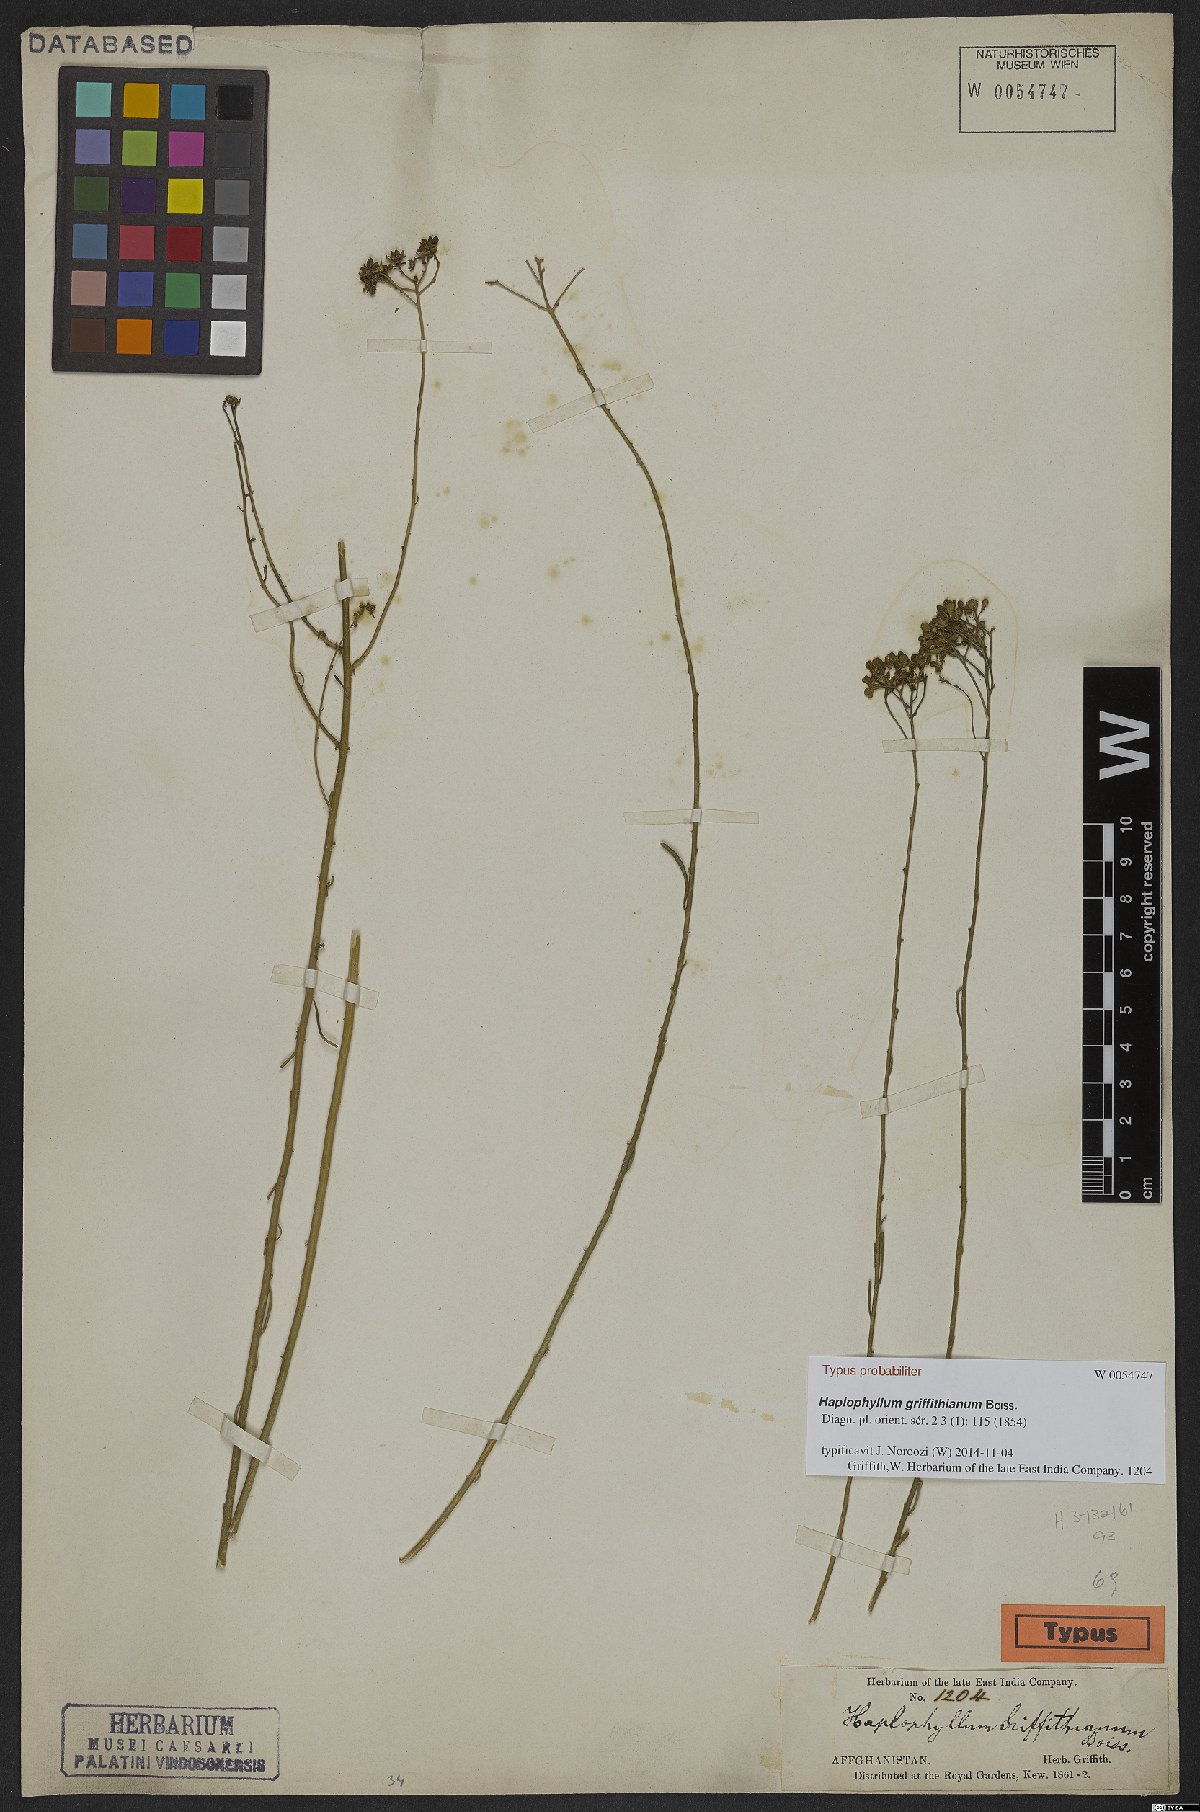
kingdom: Plantae
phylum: Tracheophyta
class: Magnoliopsida
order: Sapindales
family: Rutaceae
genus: Haplophyllum
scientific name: Haplophyllum griffithianum
